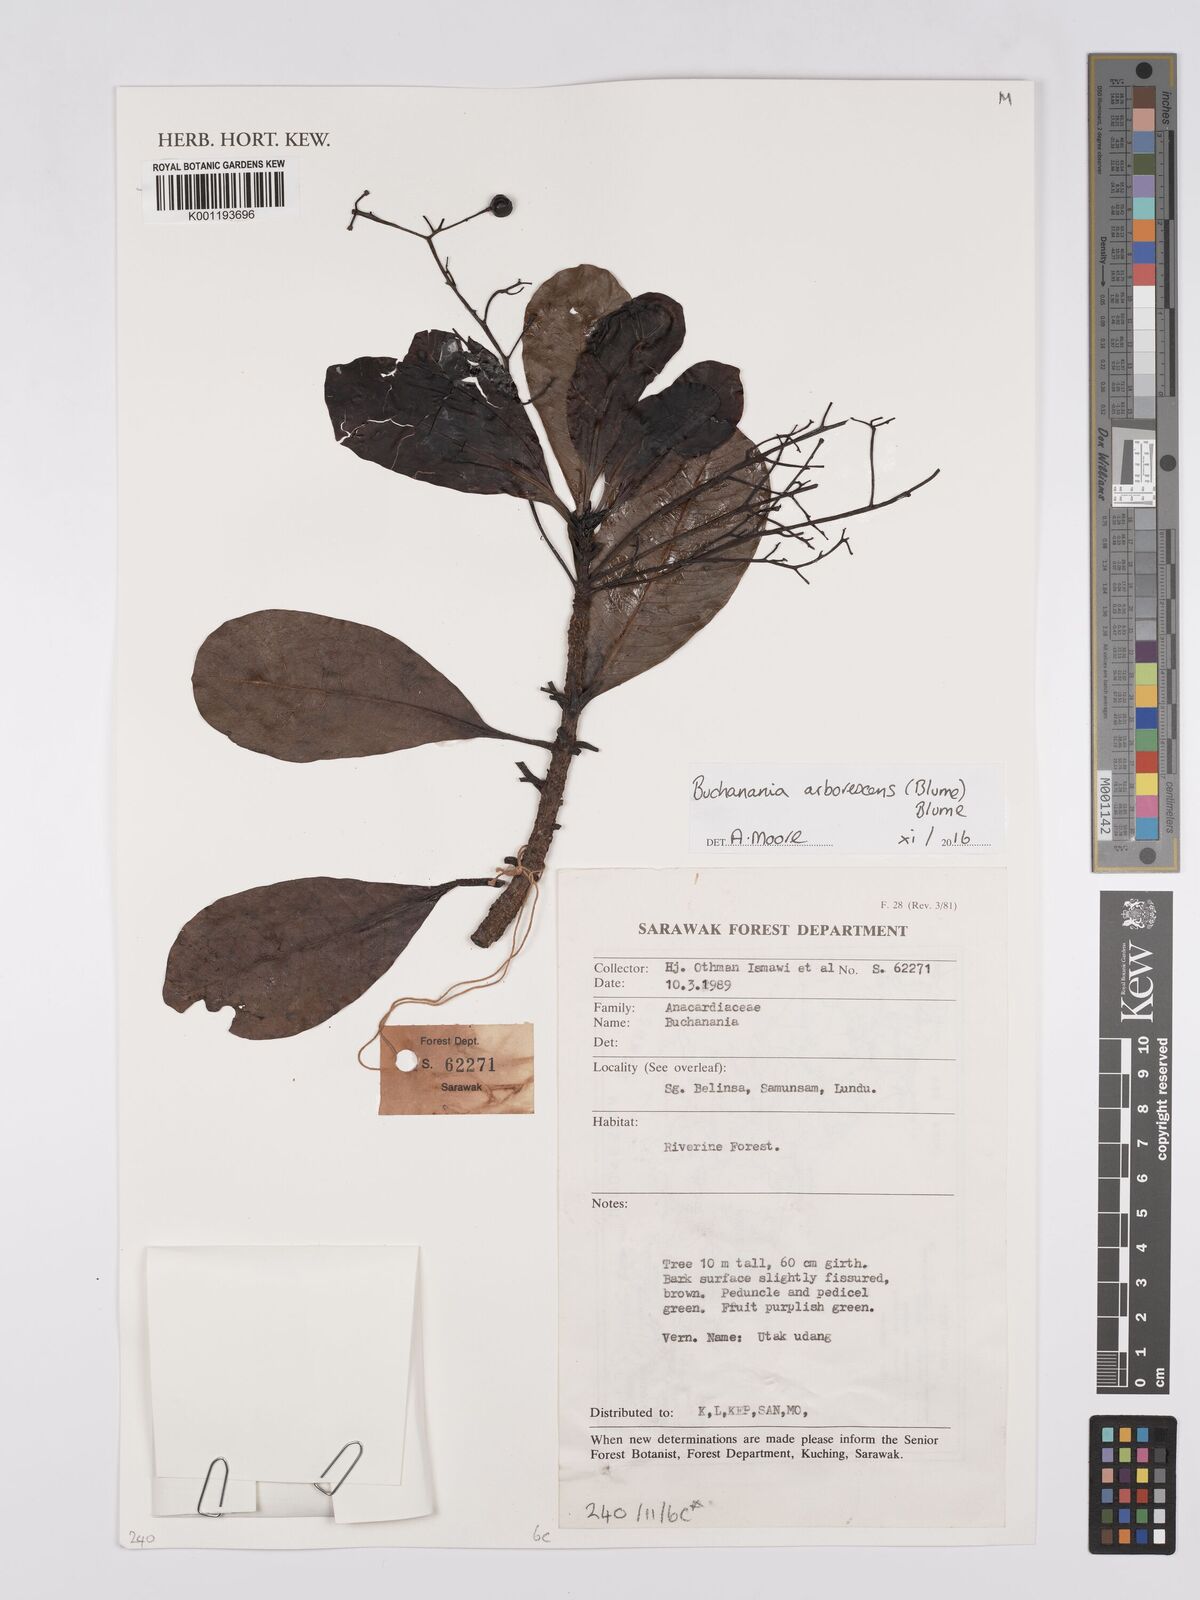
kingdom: Plantae
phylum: Tracheophyta
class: Magnoliopsida
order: Sapindales
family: Anacardiaceae
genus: Buchanania
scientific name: Buchanania arborescens
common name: Sparrow’s mango
